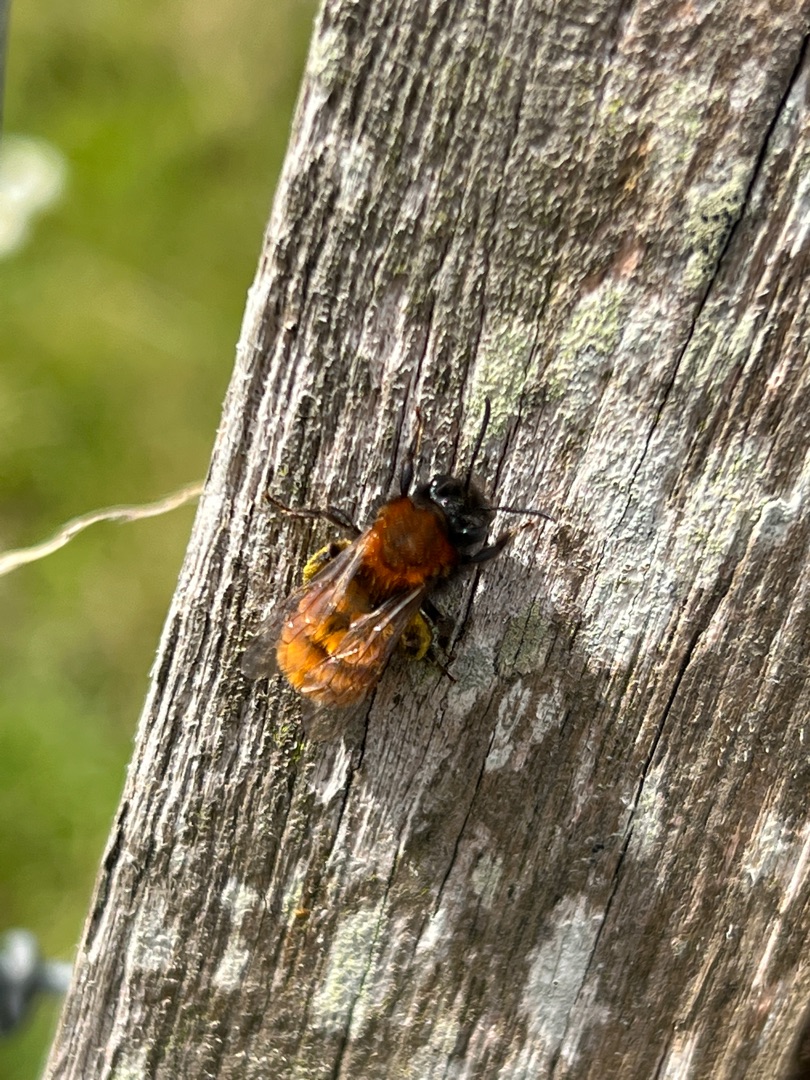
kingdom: Animalia
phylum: Arthropoda
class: Insecta
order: Hymenoptera
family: Andrenidae
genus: Andrena
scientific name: Andrena fulva
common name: Rødpelset jordbi
